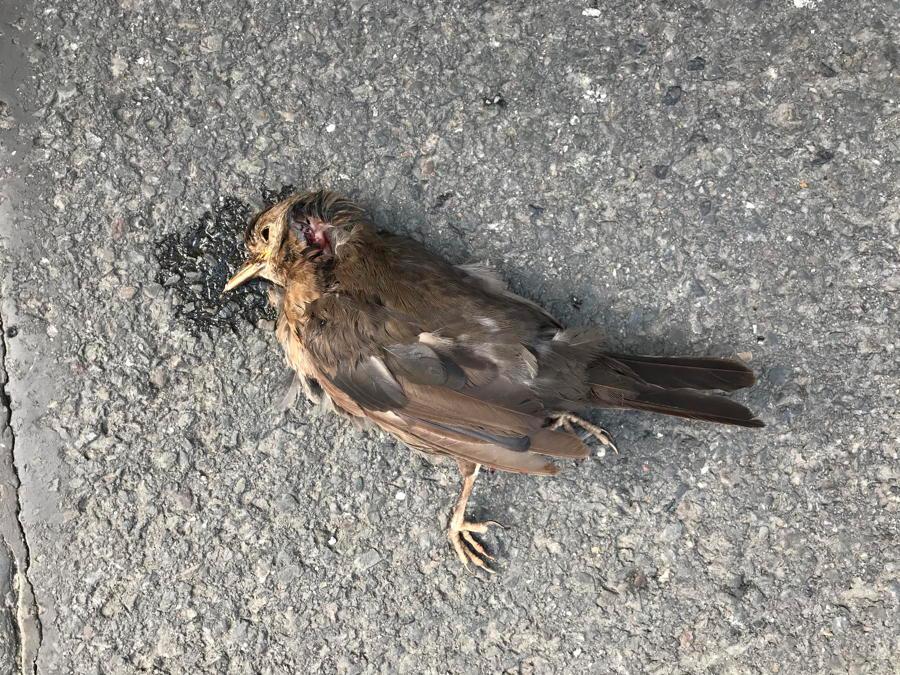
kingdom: Animalia
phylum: Chordata
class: Aves
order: Passeriformes
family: Turdidae
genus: Turdus
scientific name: Turdus merula
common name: Common blackbird
